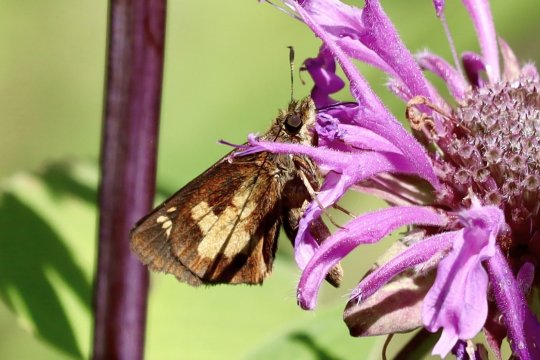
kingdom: Animalia
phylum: Arthropoda
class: Insecta
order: Lepidoptera
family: Hesperiidae
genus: Poanes
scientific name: Poanes massasoit
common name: Mulberry Wing
